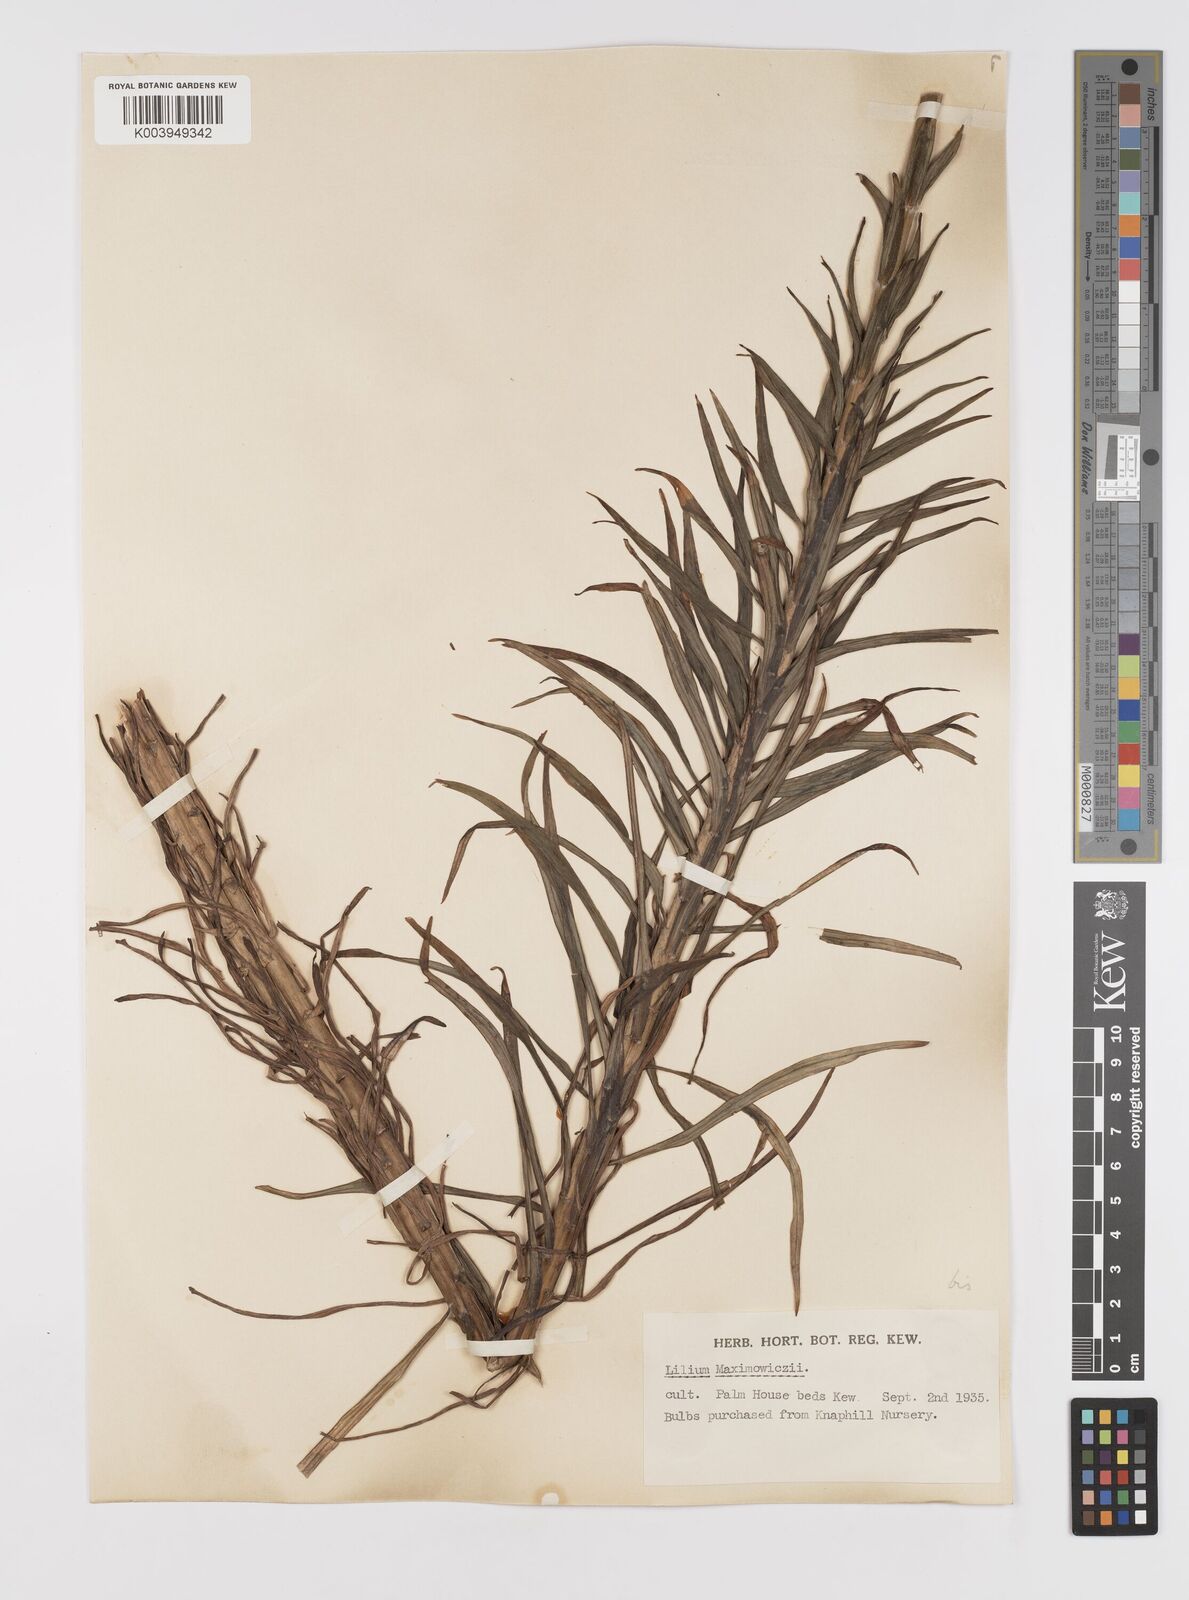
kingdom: Plantae
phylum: Tracheophyta
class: Liliopsida
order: Liliales
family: Liliaceae
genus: Lilium
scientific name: Lilium leichtlinii
